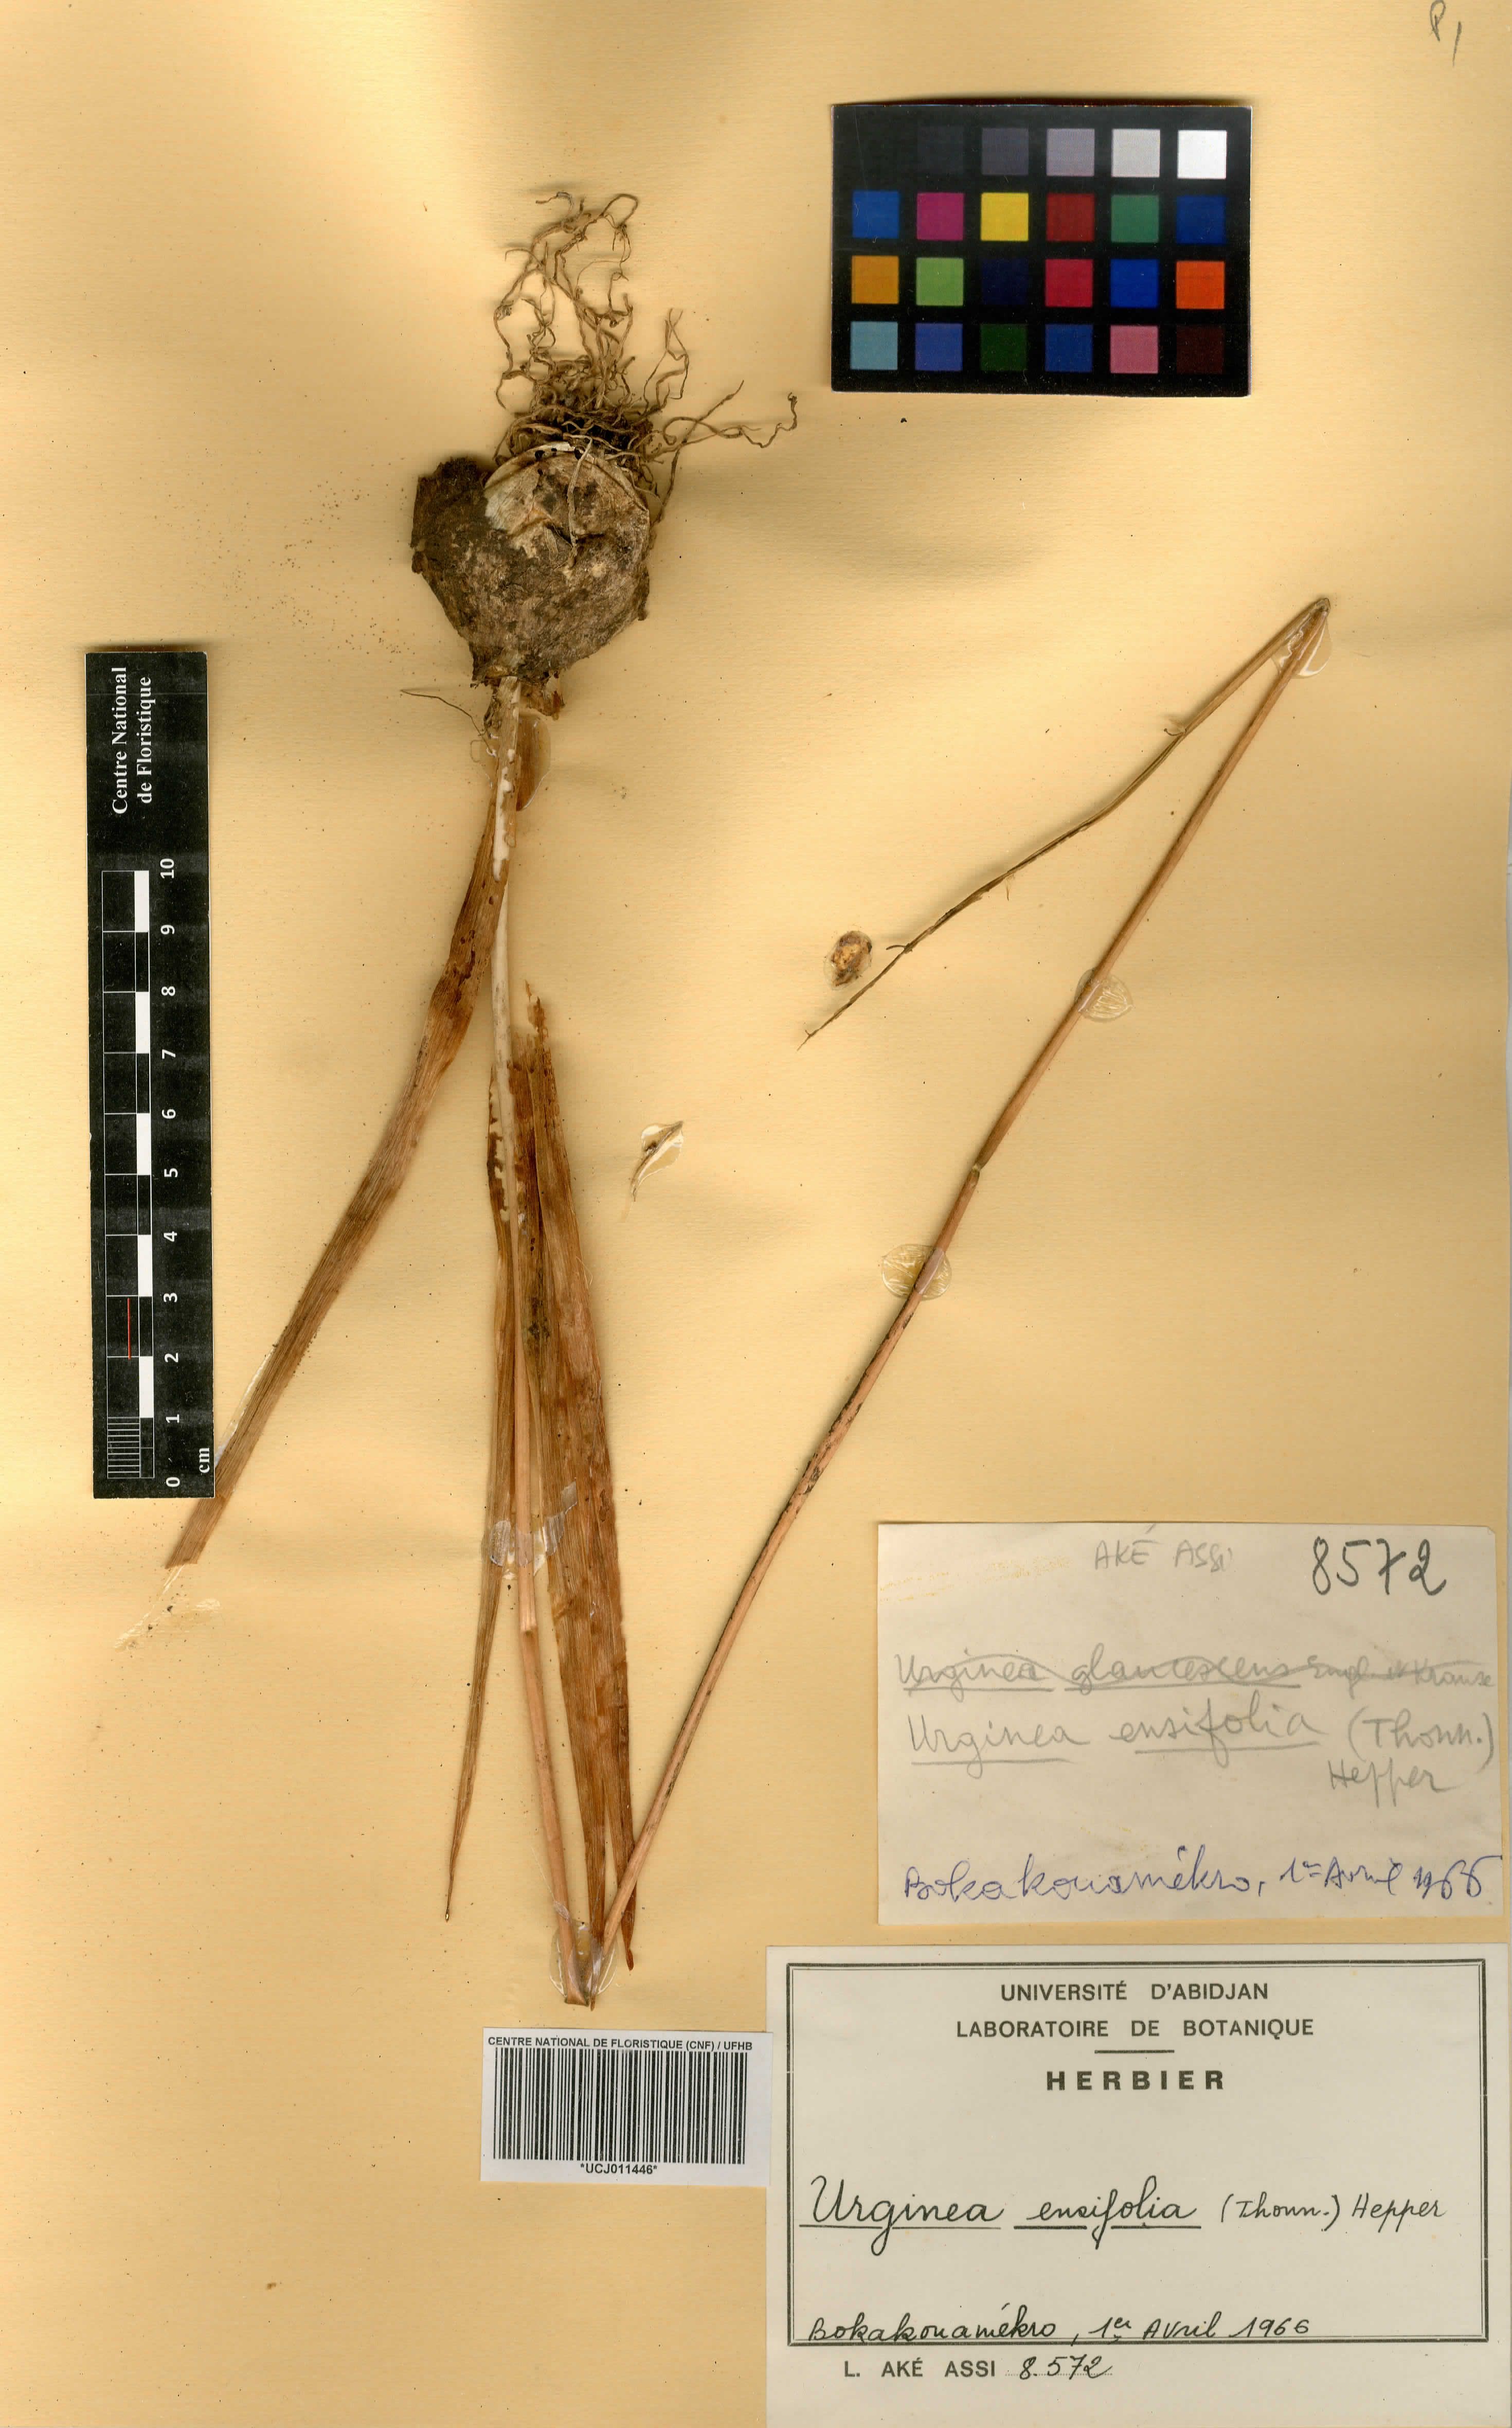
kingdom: Plantae
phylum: Tracheophyta
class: Liliopsida
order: Asparagales
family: Asparagaceae
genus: Drimia
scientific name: Drimia glaucescens
